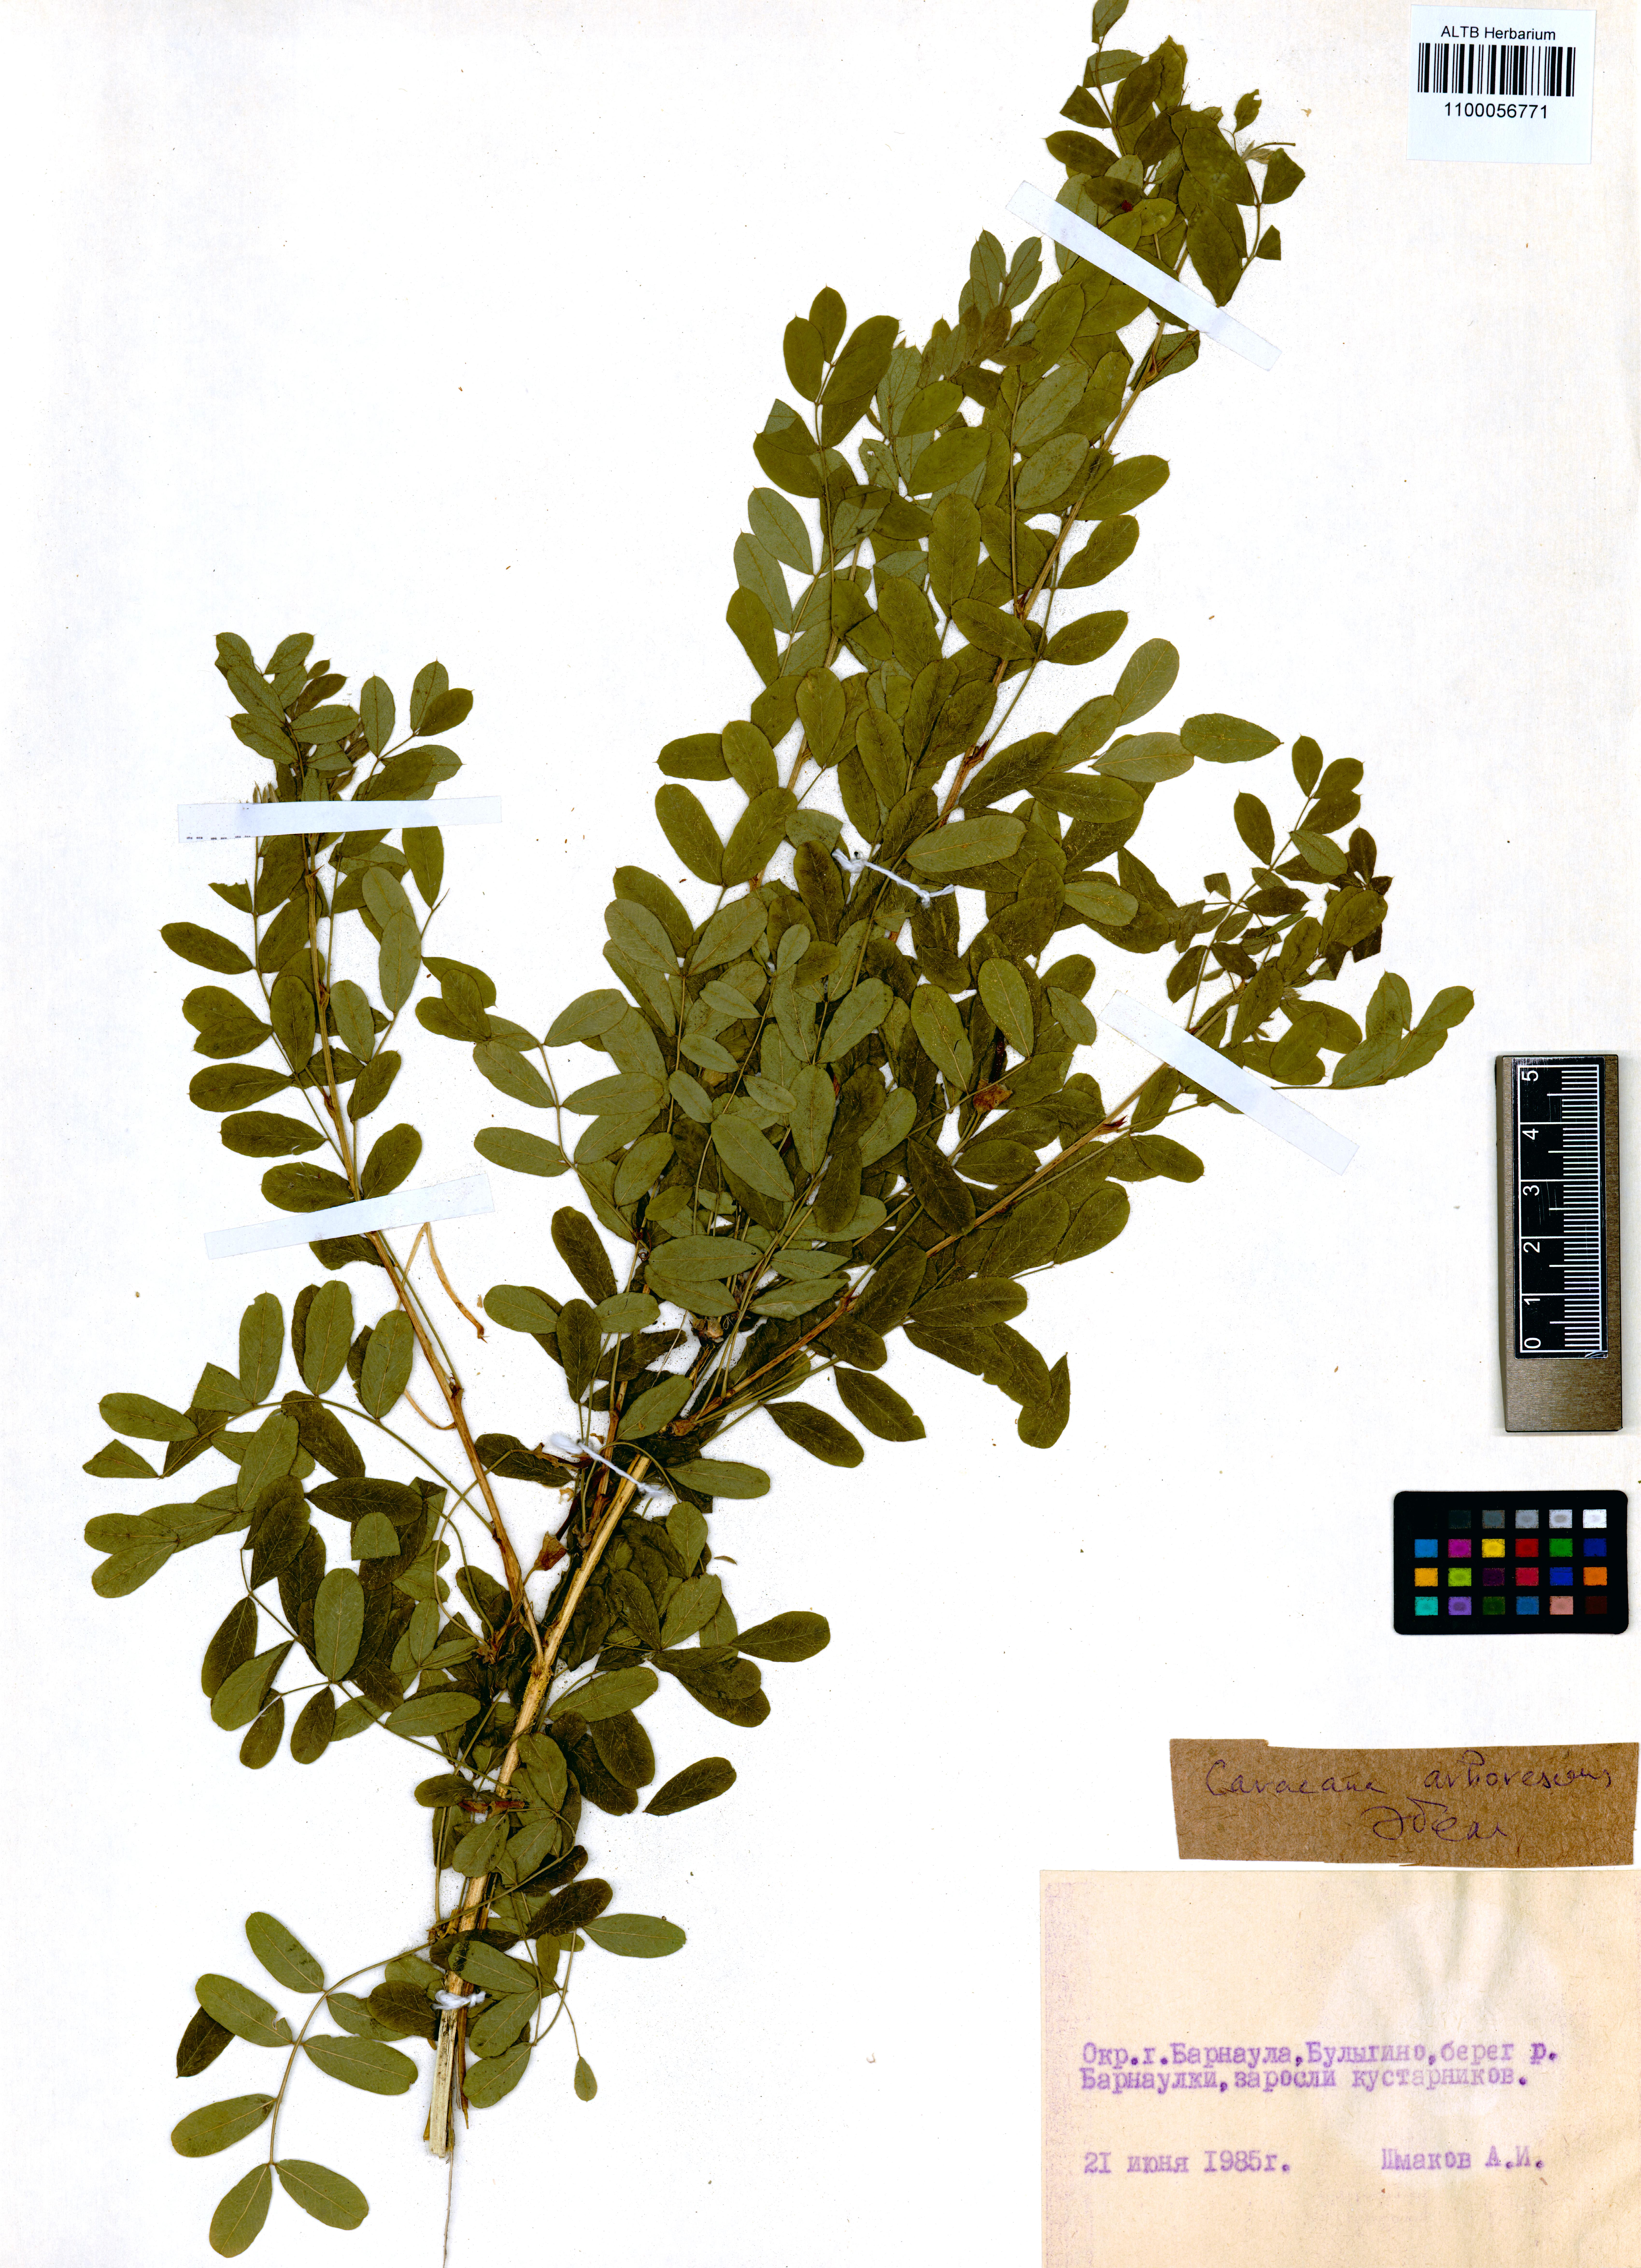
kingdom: Plantae
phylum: Tracheophyta
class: Magnoliopsida
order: Fabales
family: Fabaceae
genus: Caragana
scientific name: Caragana arborescens
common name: Siberian peashrub
